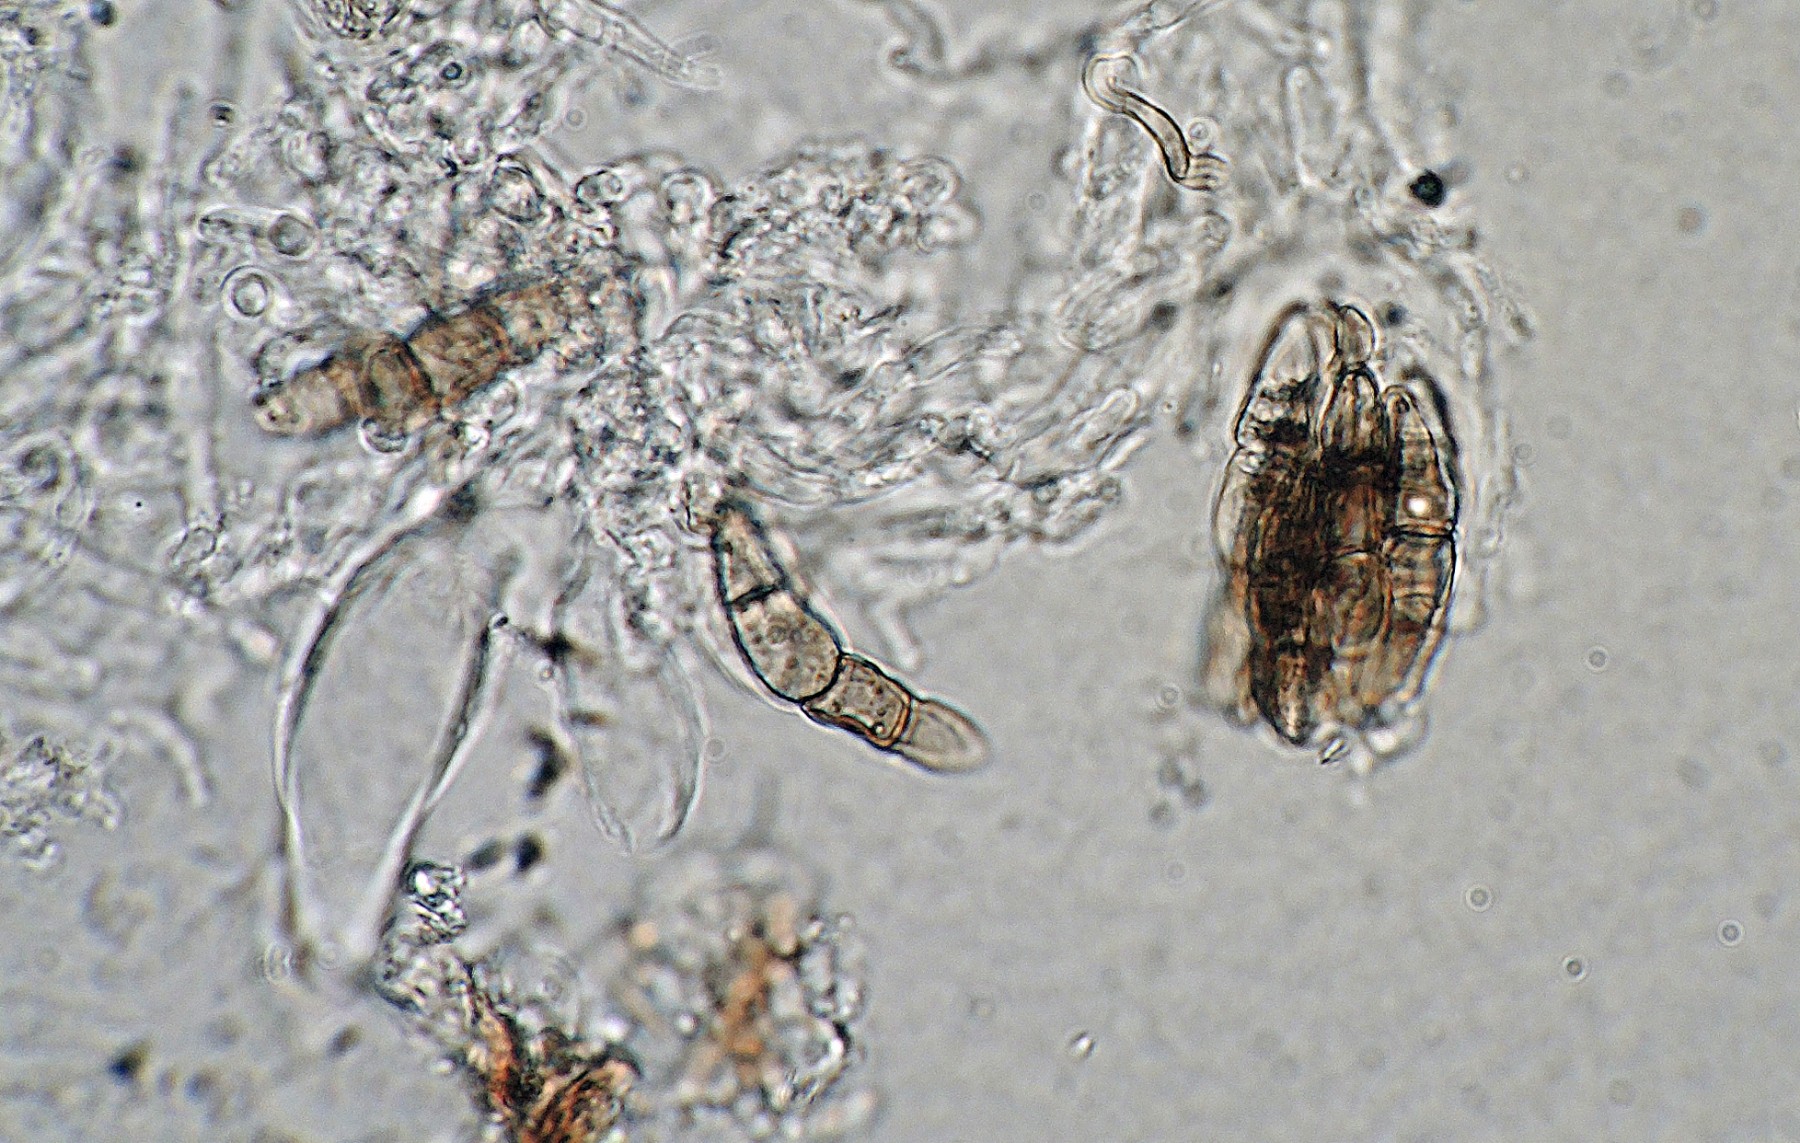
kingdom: Fungi
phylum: Ascomycota
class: Dothideomycetes
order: Pleosporales
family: Leptosphaeriaceae
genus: Leptosphaeria
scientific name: Leptosphaeria empetri
